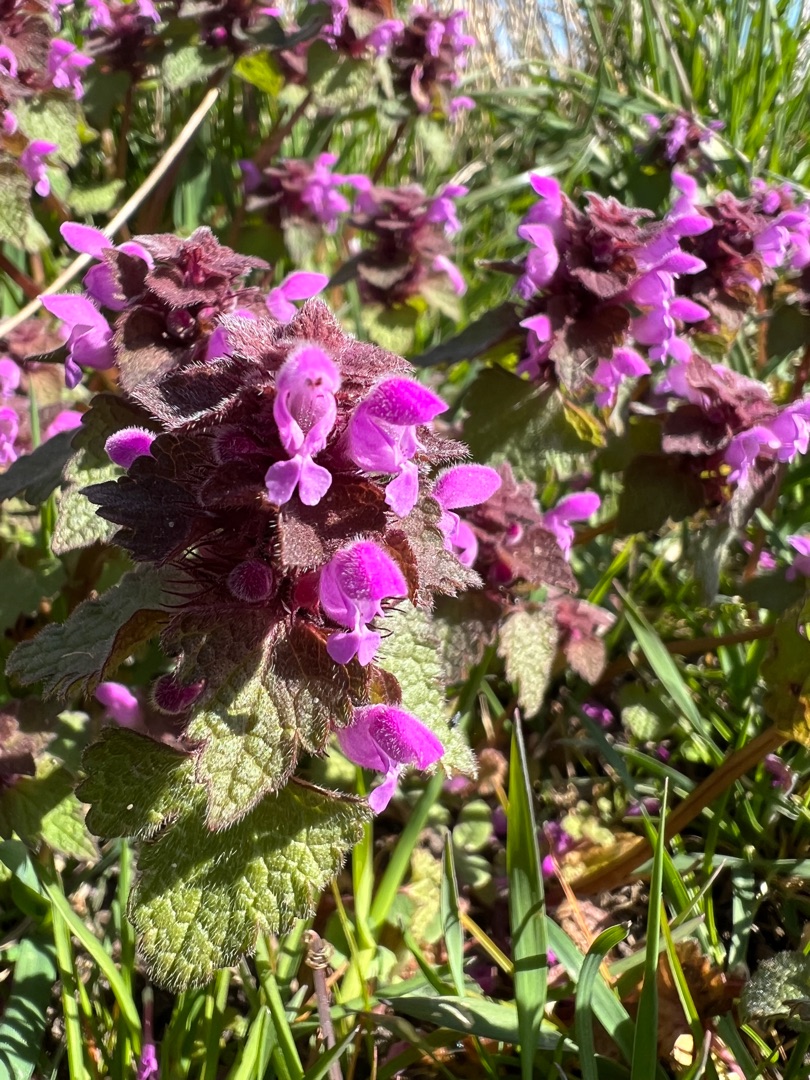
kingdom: Plantae
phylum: Tracheophyta
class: Magnoliopsida
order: Lamiales
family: Lamiaceae
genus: Lamium
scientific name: Lamium purpureum
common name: Rød tvetand
